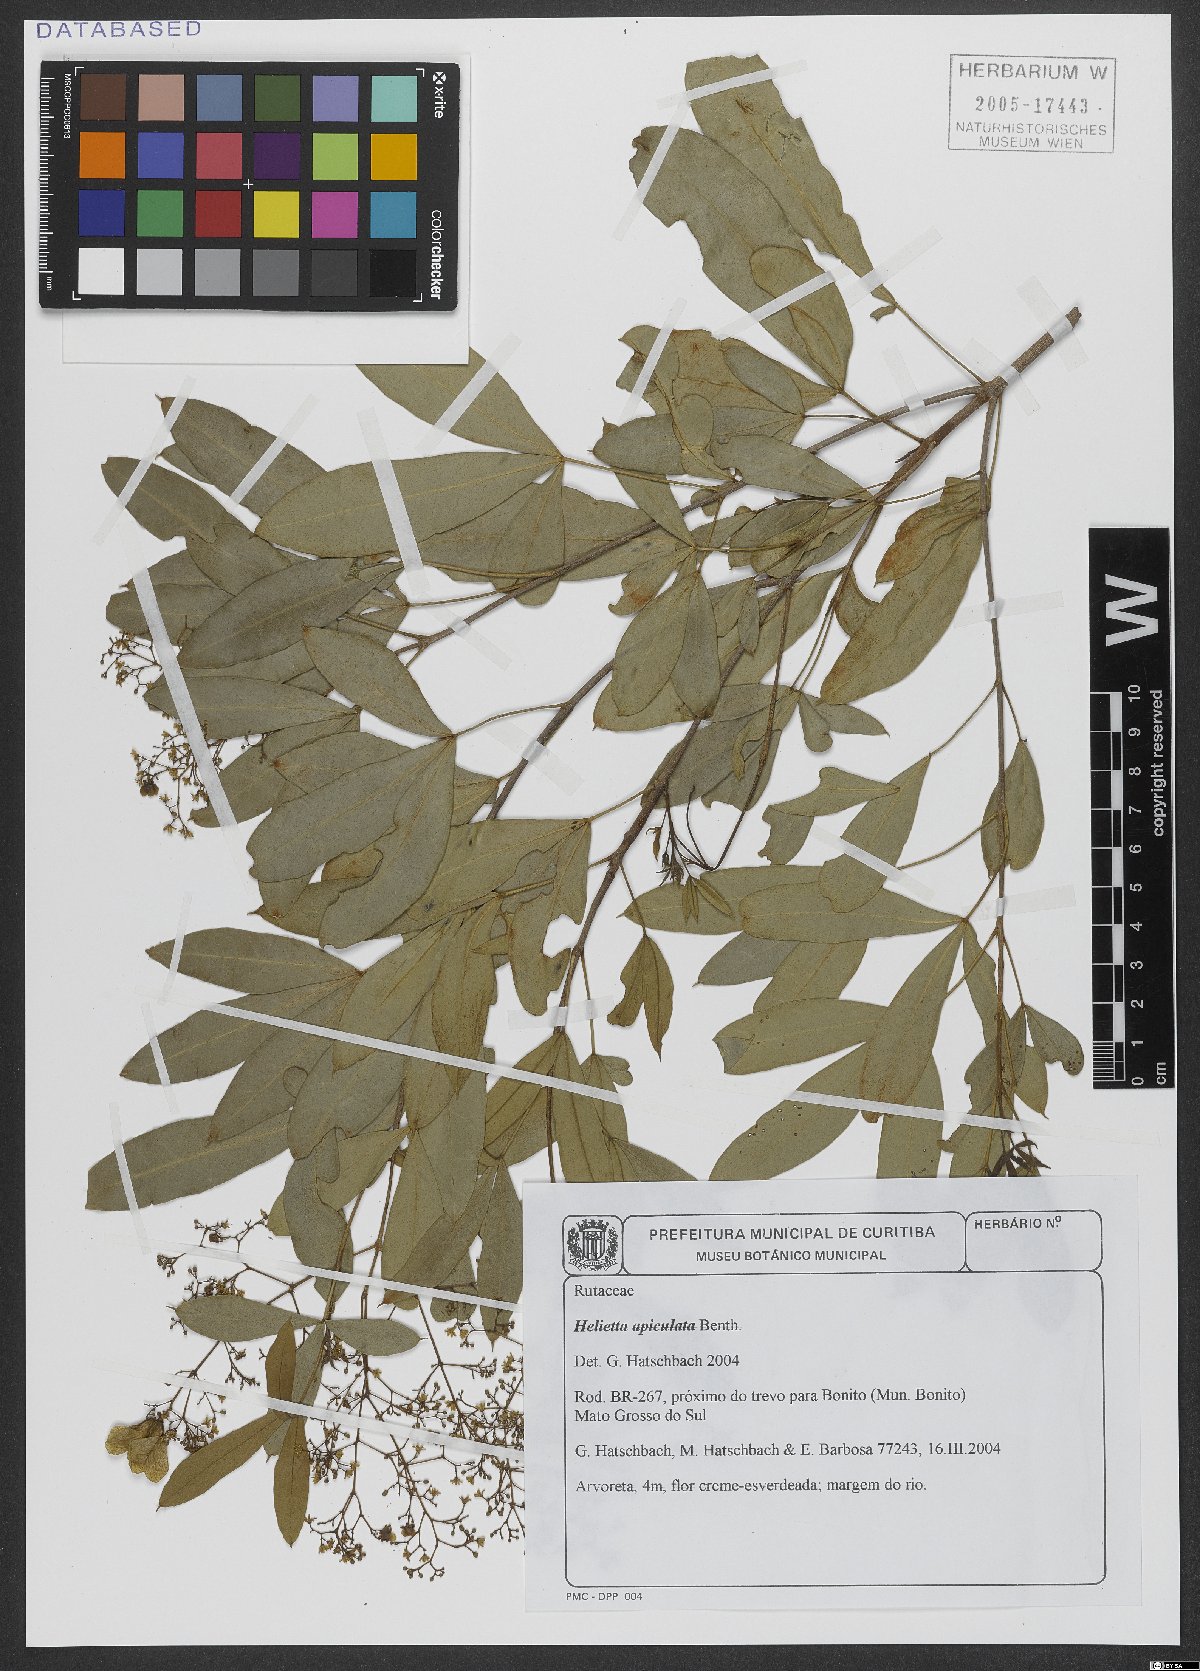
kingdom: Plantae
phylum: Tracheophyta
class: Magnoliopsida
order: Sapindales
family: Rutaceae
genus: Helietta
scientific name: Helietta apiculata
